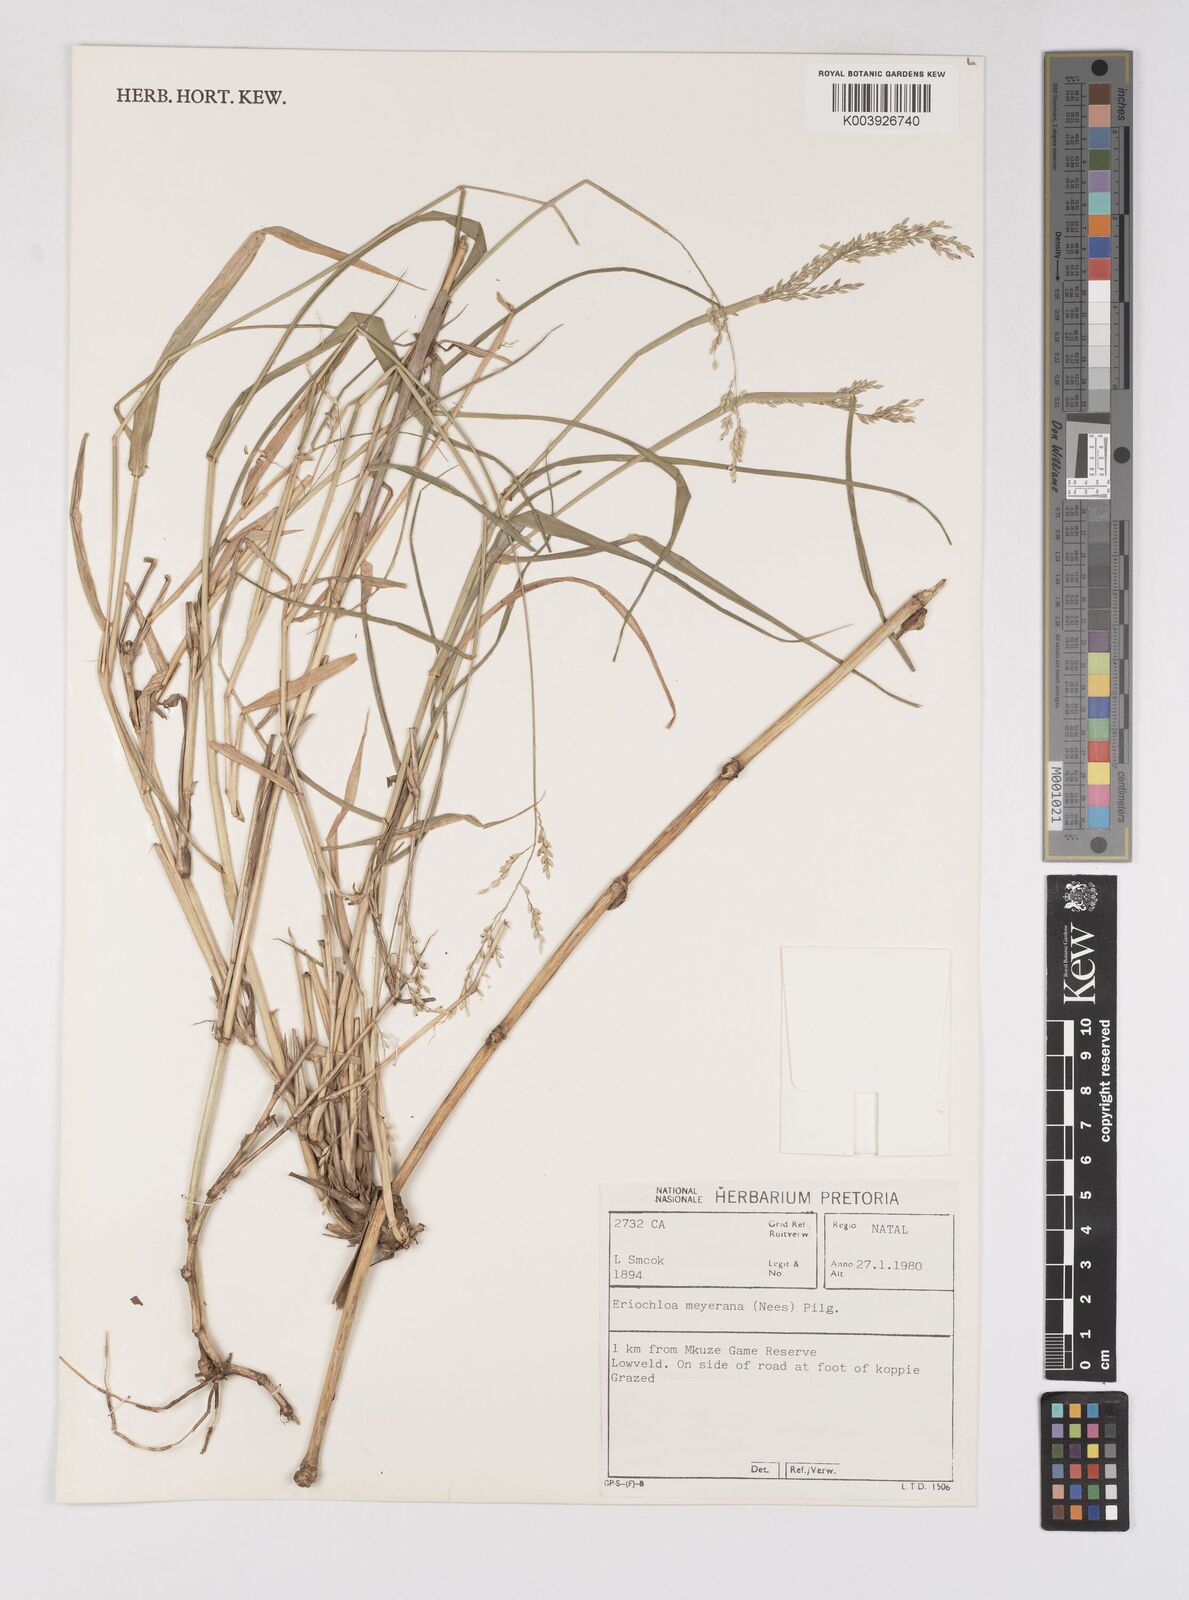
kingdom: Plantae
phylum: Tracheophyta
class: Liliopsida
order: Poales
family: Poaceae
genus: Eriochloa
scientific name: Eriochloa meyeriana
